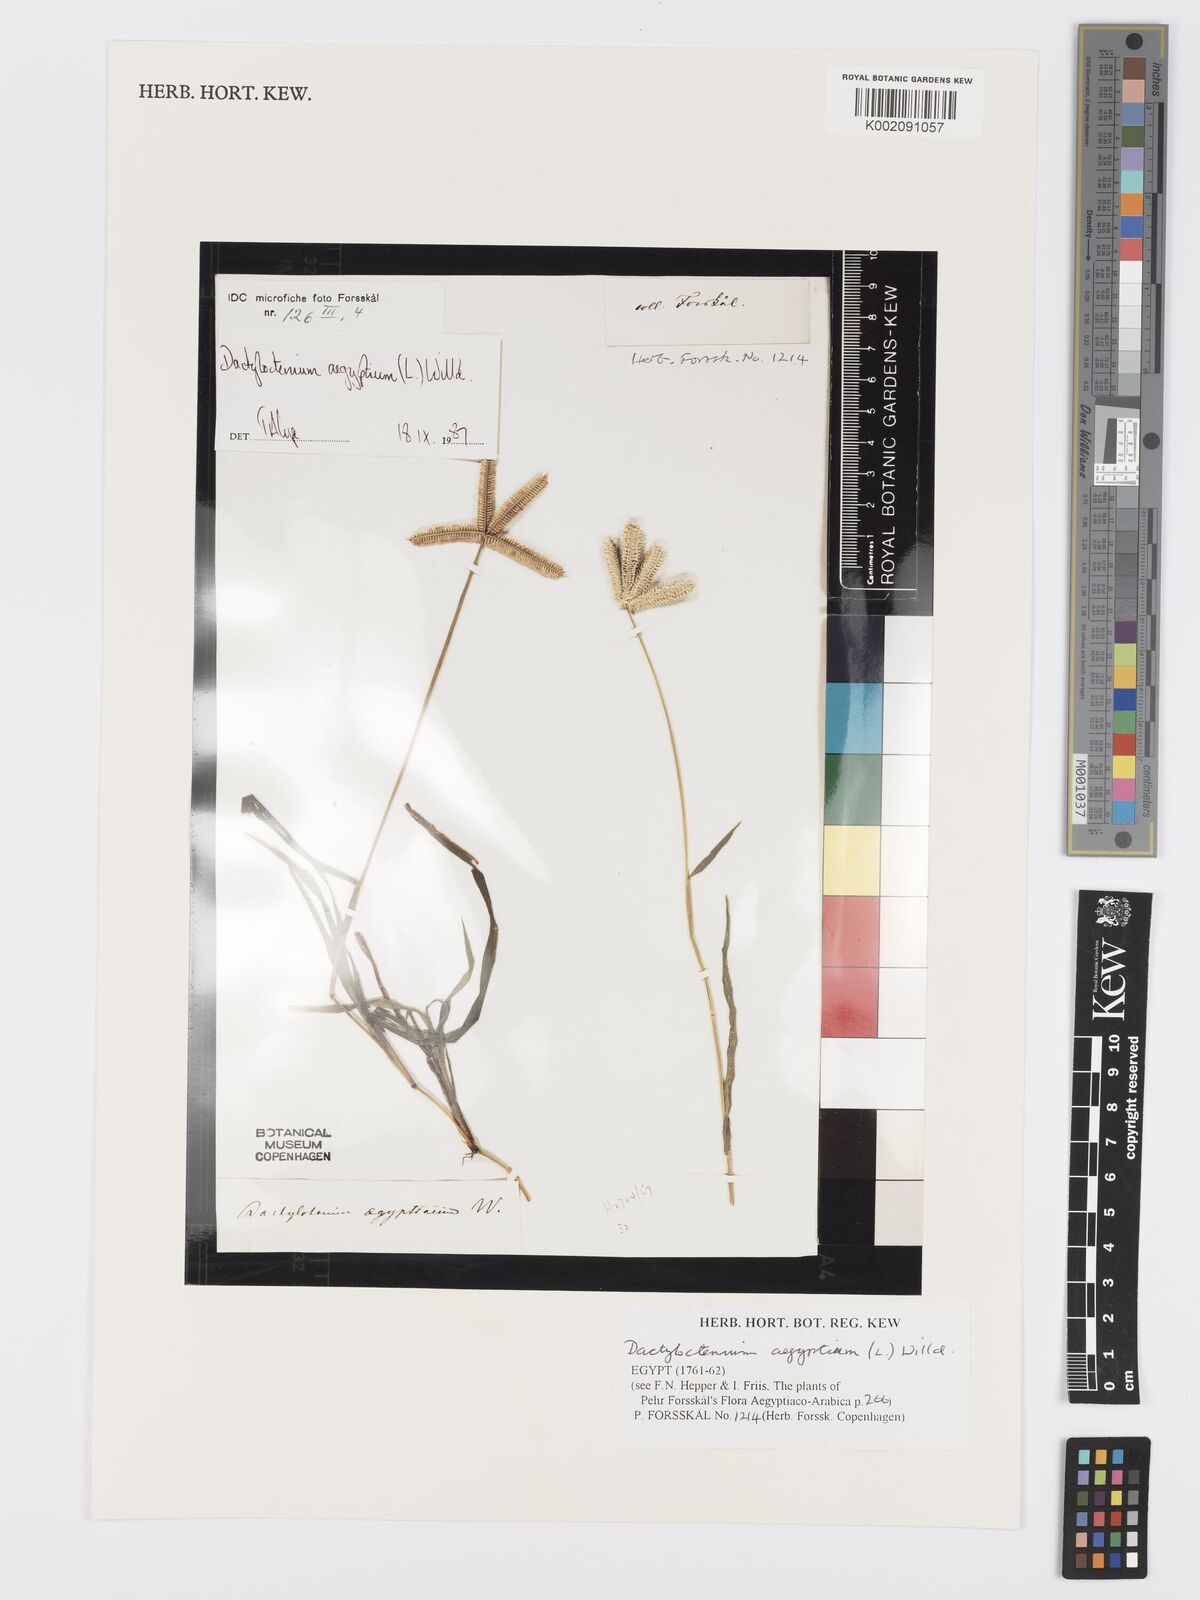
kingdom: Plantae
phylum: Tracheophyta
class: Liliopsida
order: Poales
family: Poaceae
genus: Dactyloctenium
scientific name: Dactyloctenium aegyptium
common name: Egyptian grass
